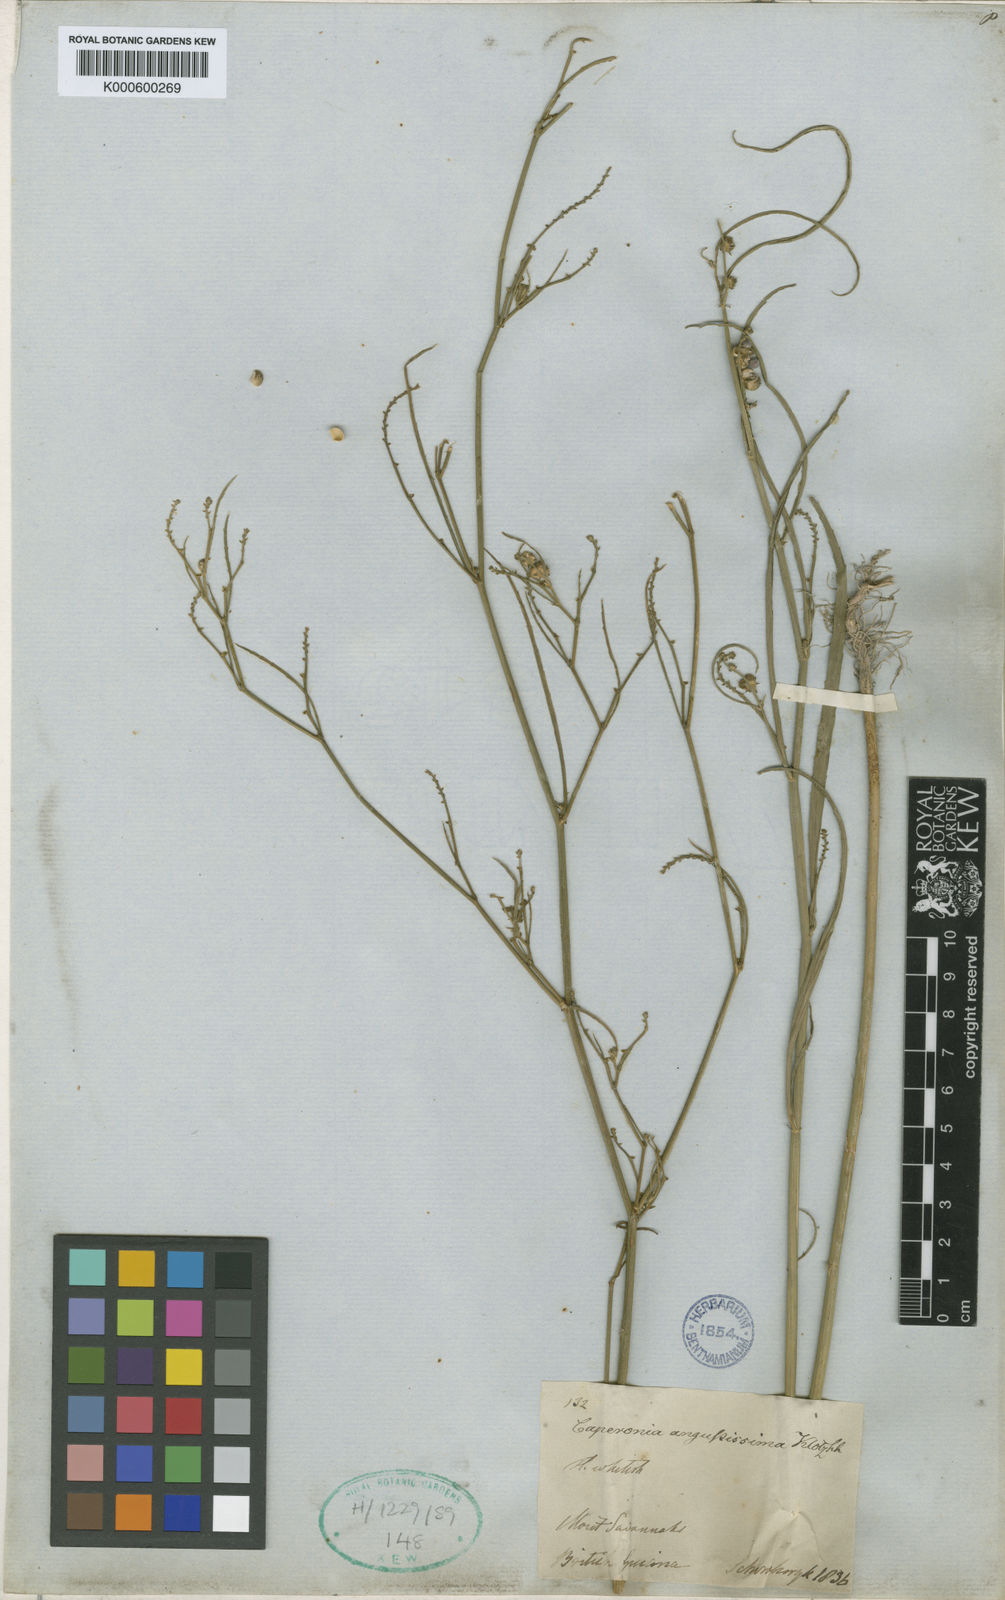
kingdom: Plantae
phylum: Tracheophyta
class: Magnoliopsida
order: Malpighiales
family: Euphorbiaceae
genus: Caperonia
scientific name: Caperonia angustissima
